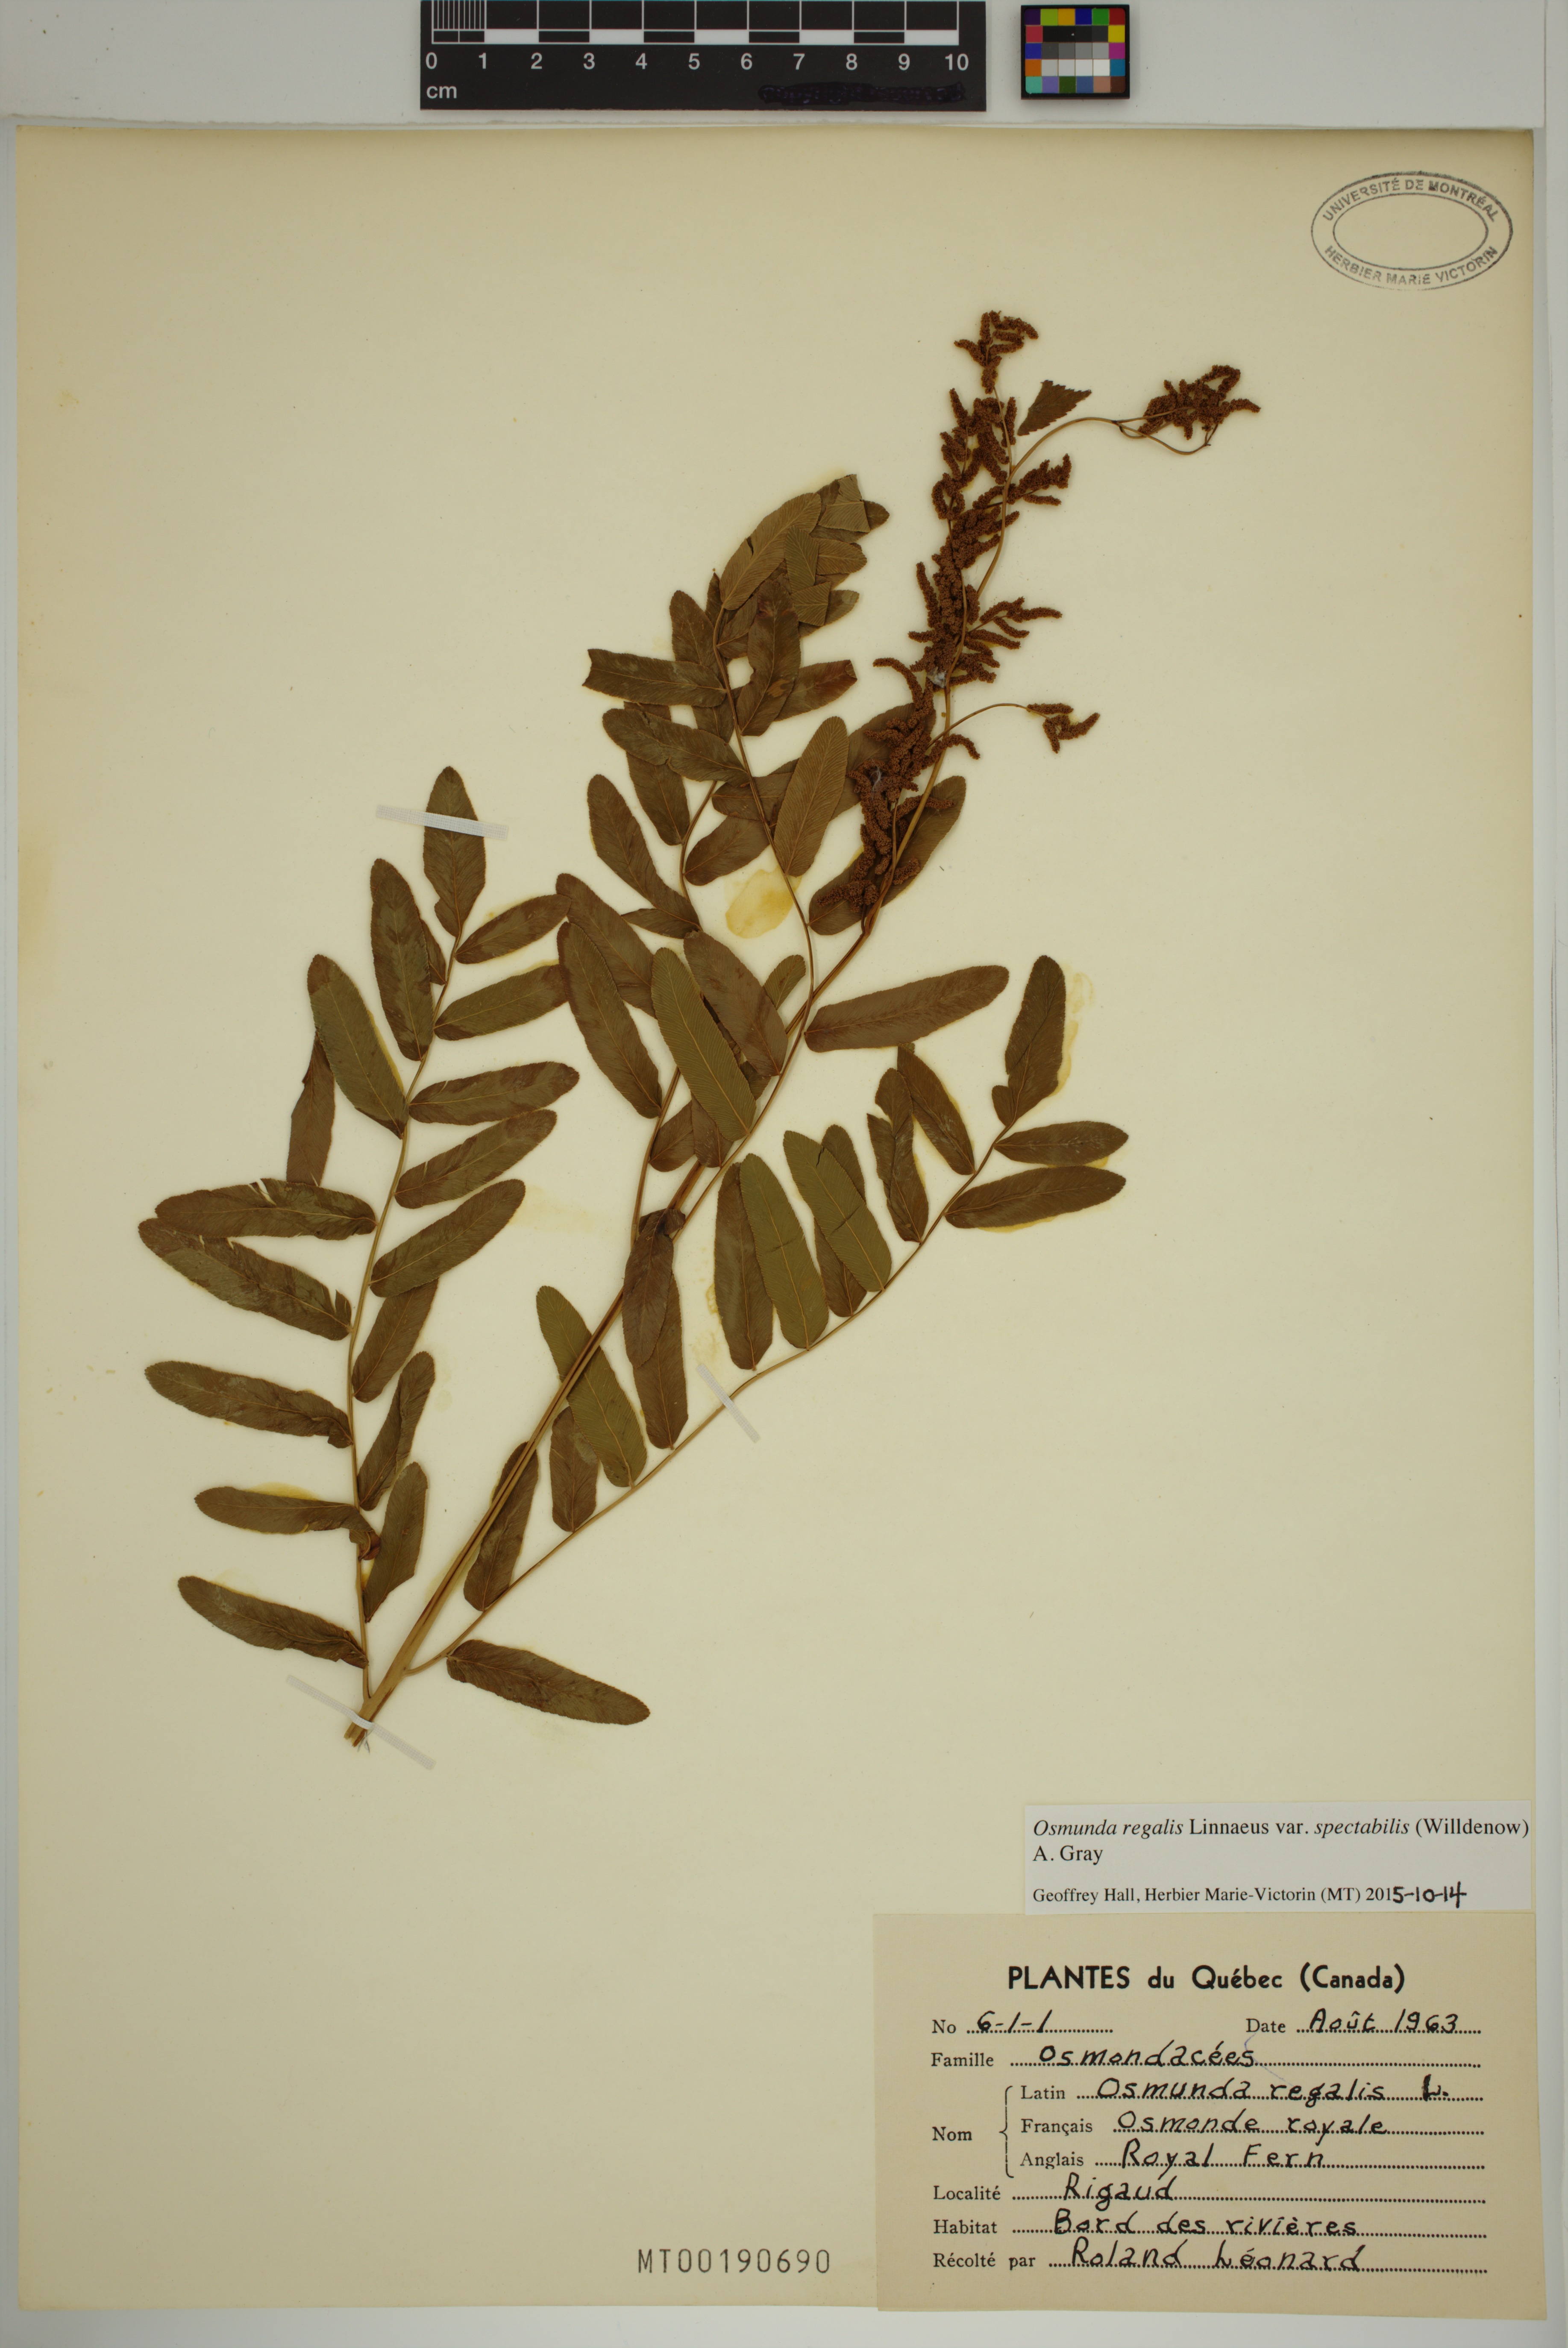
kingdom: Plantae
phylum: Tracheophyta
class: Polypodiopsida
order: Osmundales
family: Osmundaceae
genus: Osmunda
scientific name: Osmunda spectabilis
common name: American royal fern
